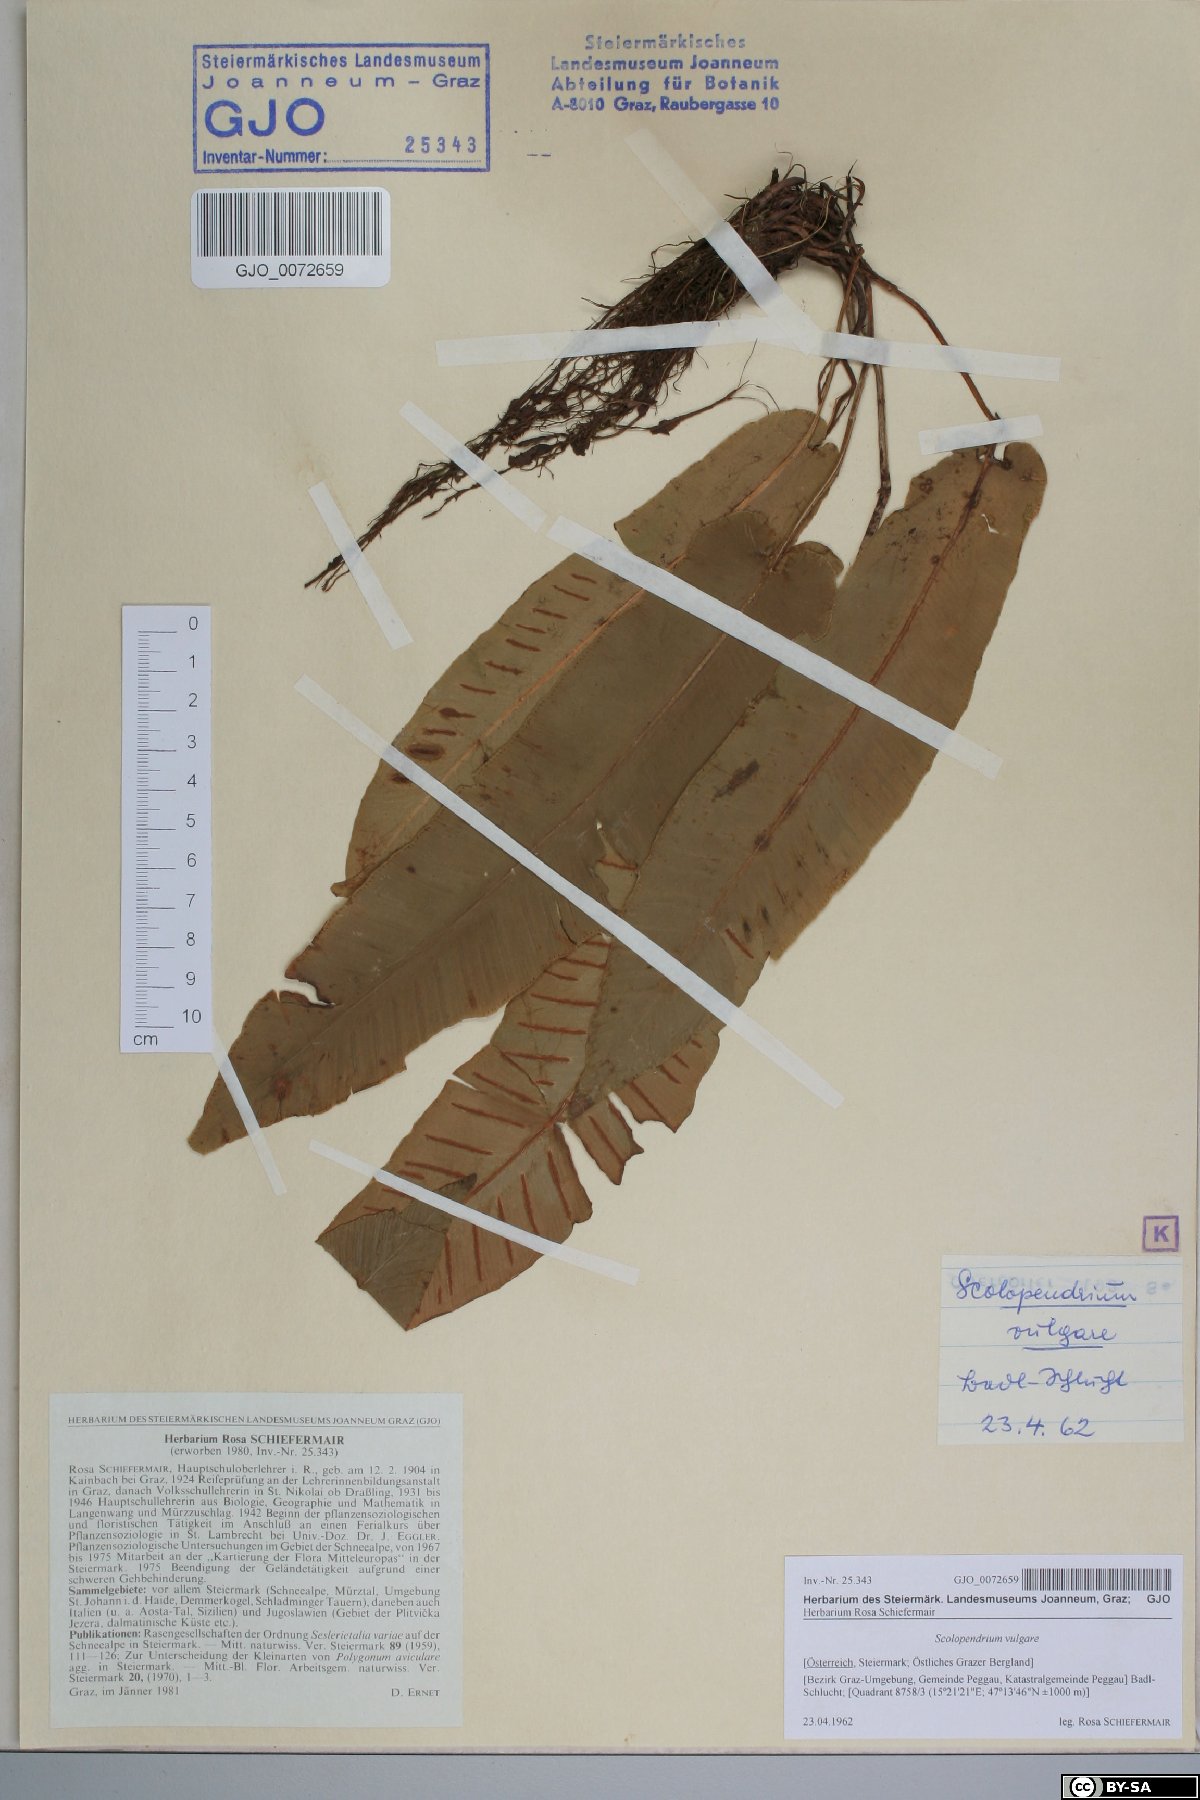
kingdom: Plantae
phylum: Tracheophyta
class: Polypodiopsida
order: Polypodiales
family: Aspleniaceae
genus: Asplenium
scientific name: Asplenium scolopendrium
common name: Hart's-tongue fern
